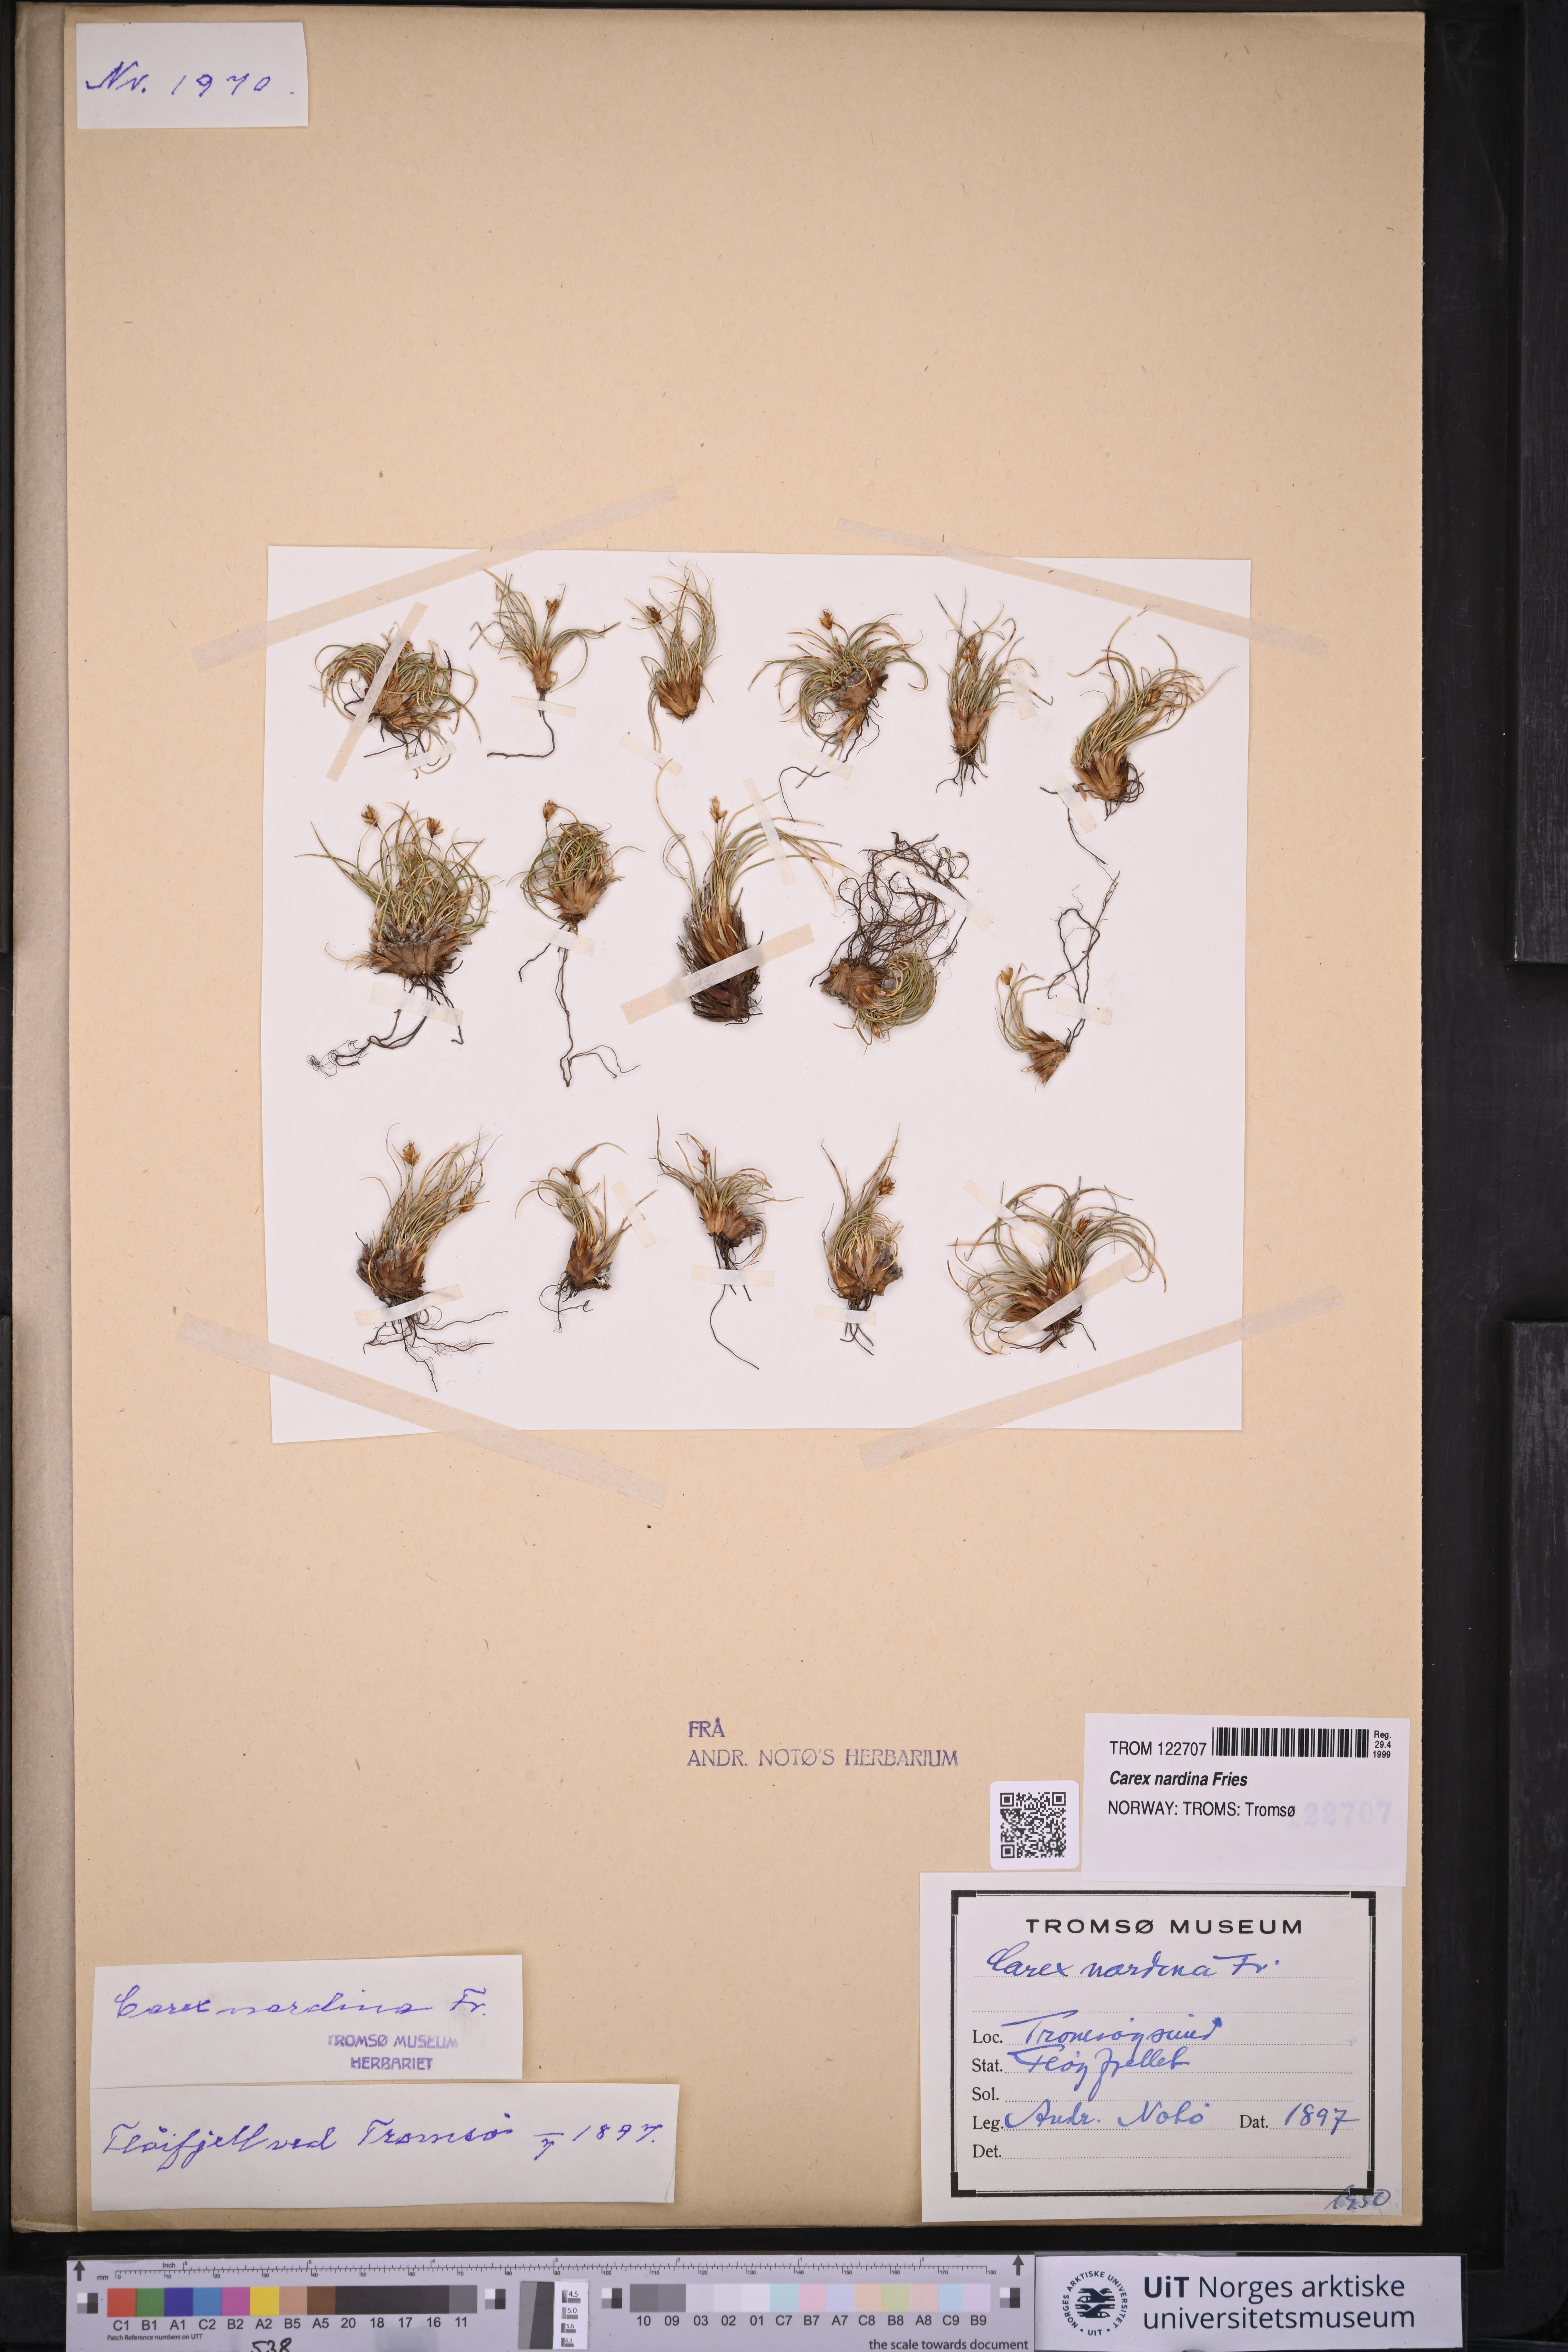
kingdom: Plantae
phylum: Tracheophyta
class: Liliopsida
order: Poales
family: Cyperaceae
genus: Carex
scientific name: Carex nardina
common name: Nard sedge
